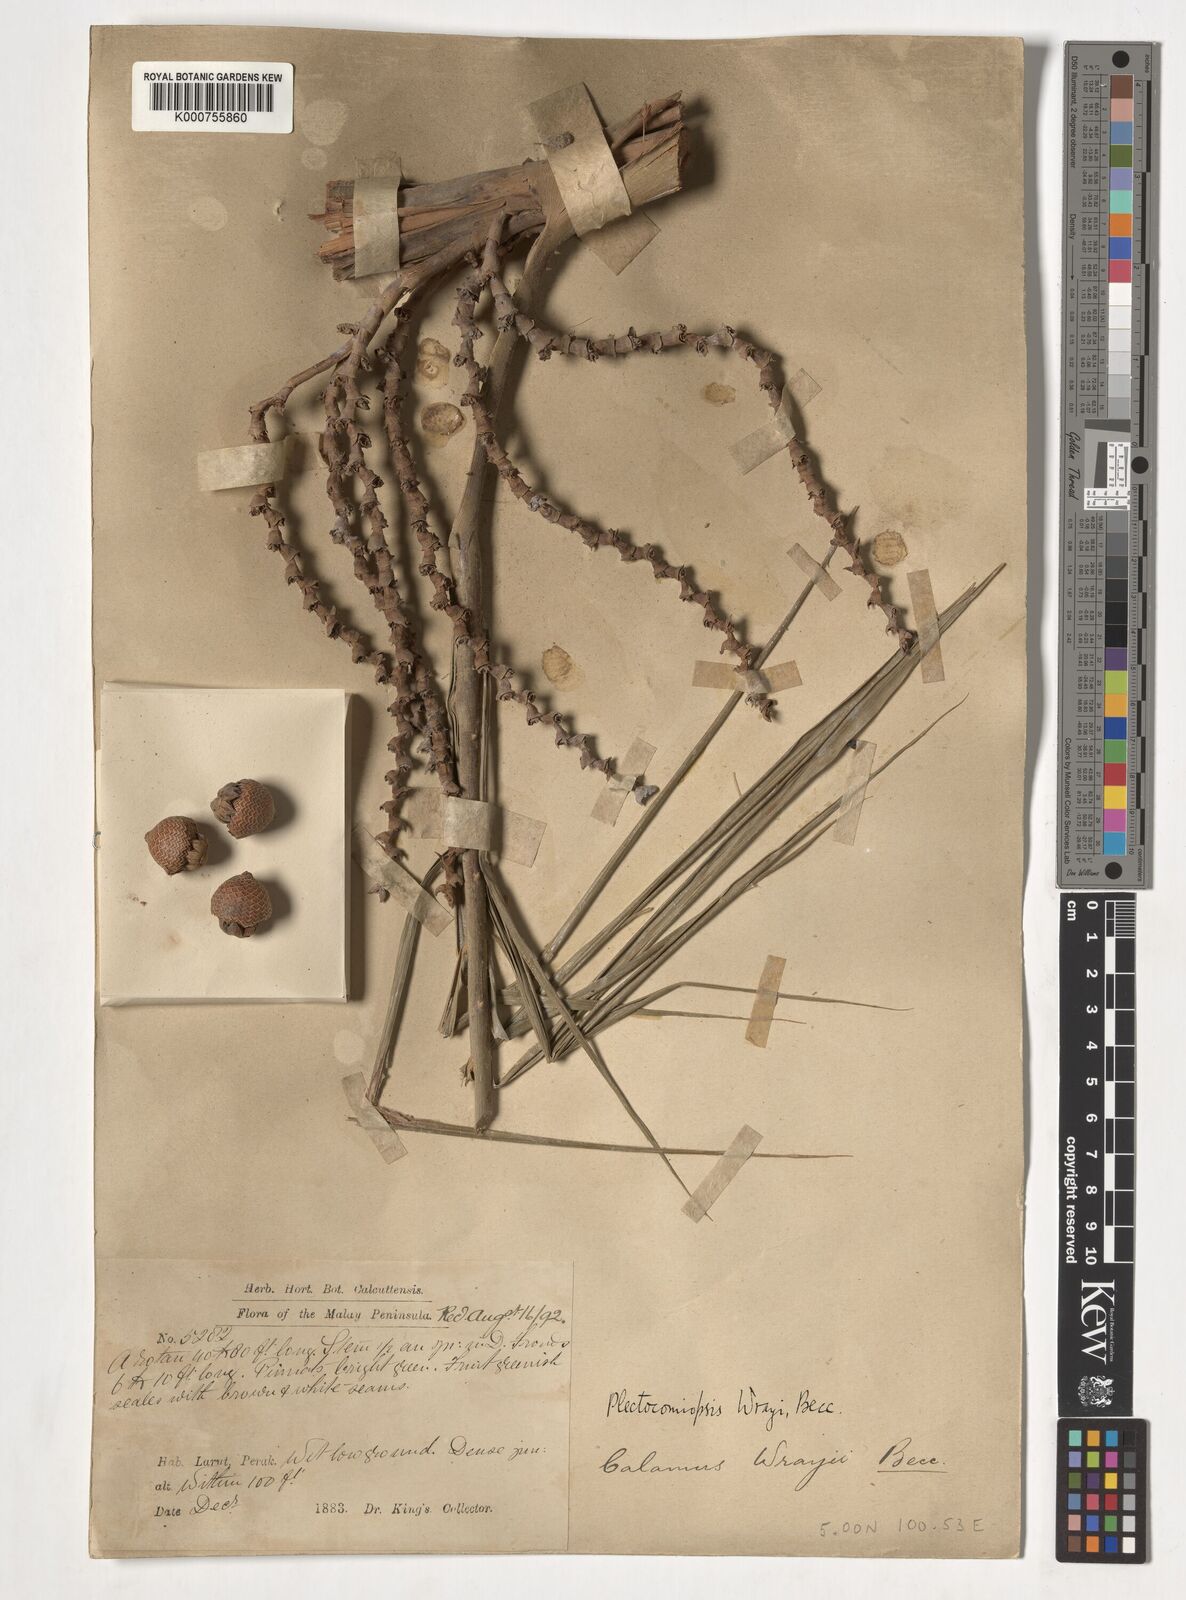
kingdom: Plantae
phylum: Tracheophyta
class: Liliopsida
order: Arecales
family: Arecaceae
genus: Plectocomiopsis
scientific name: Plectocomiopsis wrayi
